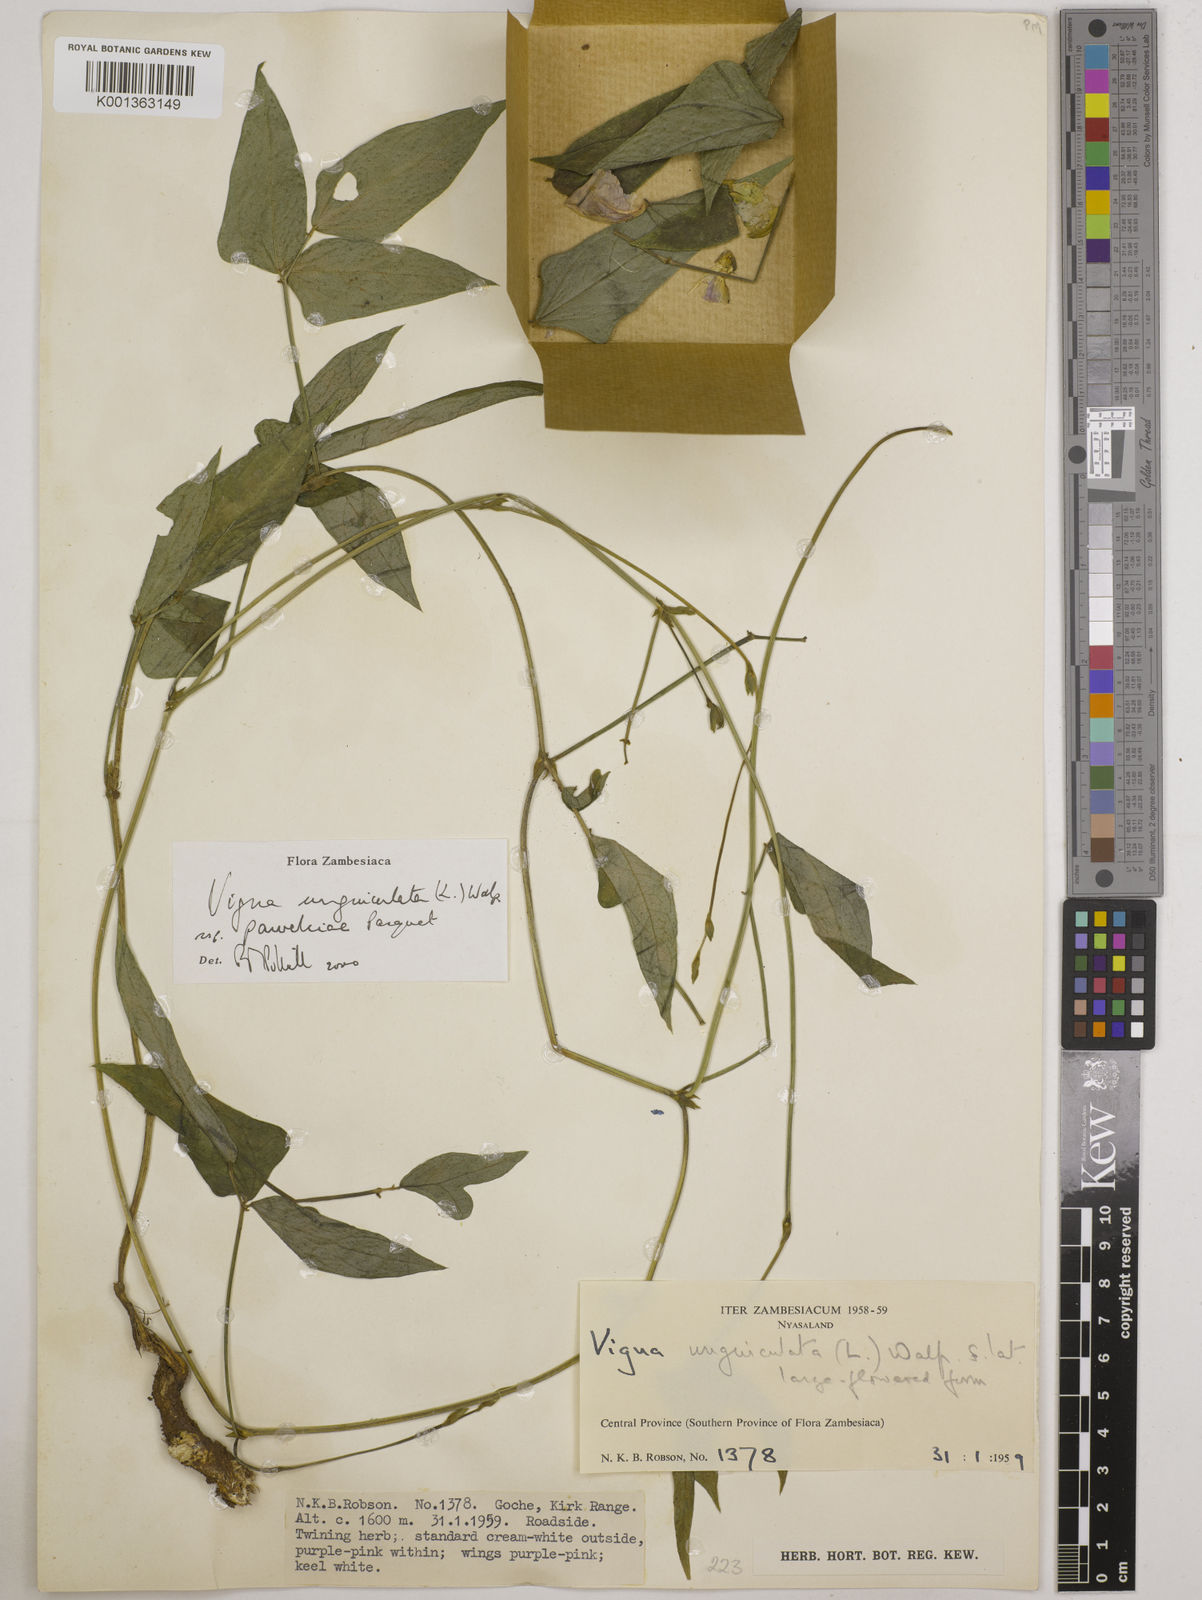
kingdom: Plantae
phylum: Tracheophyta
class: Magnoliopsida
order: Fabales
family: Fabaceae
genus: Vigna
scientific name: Vigna unguiculata
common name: Cowpea
